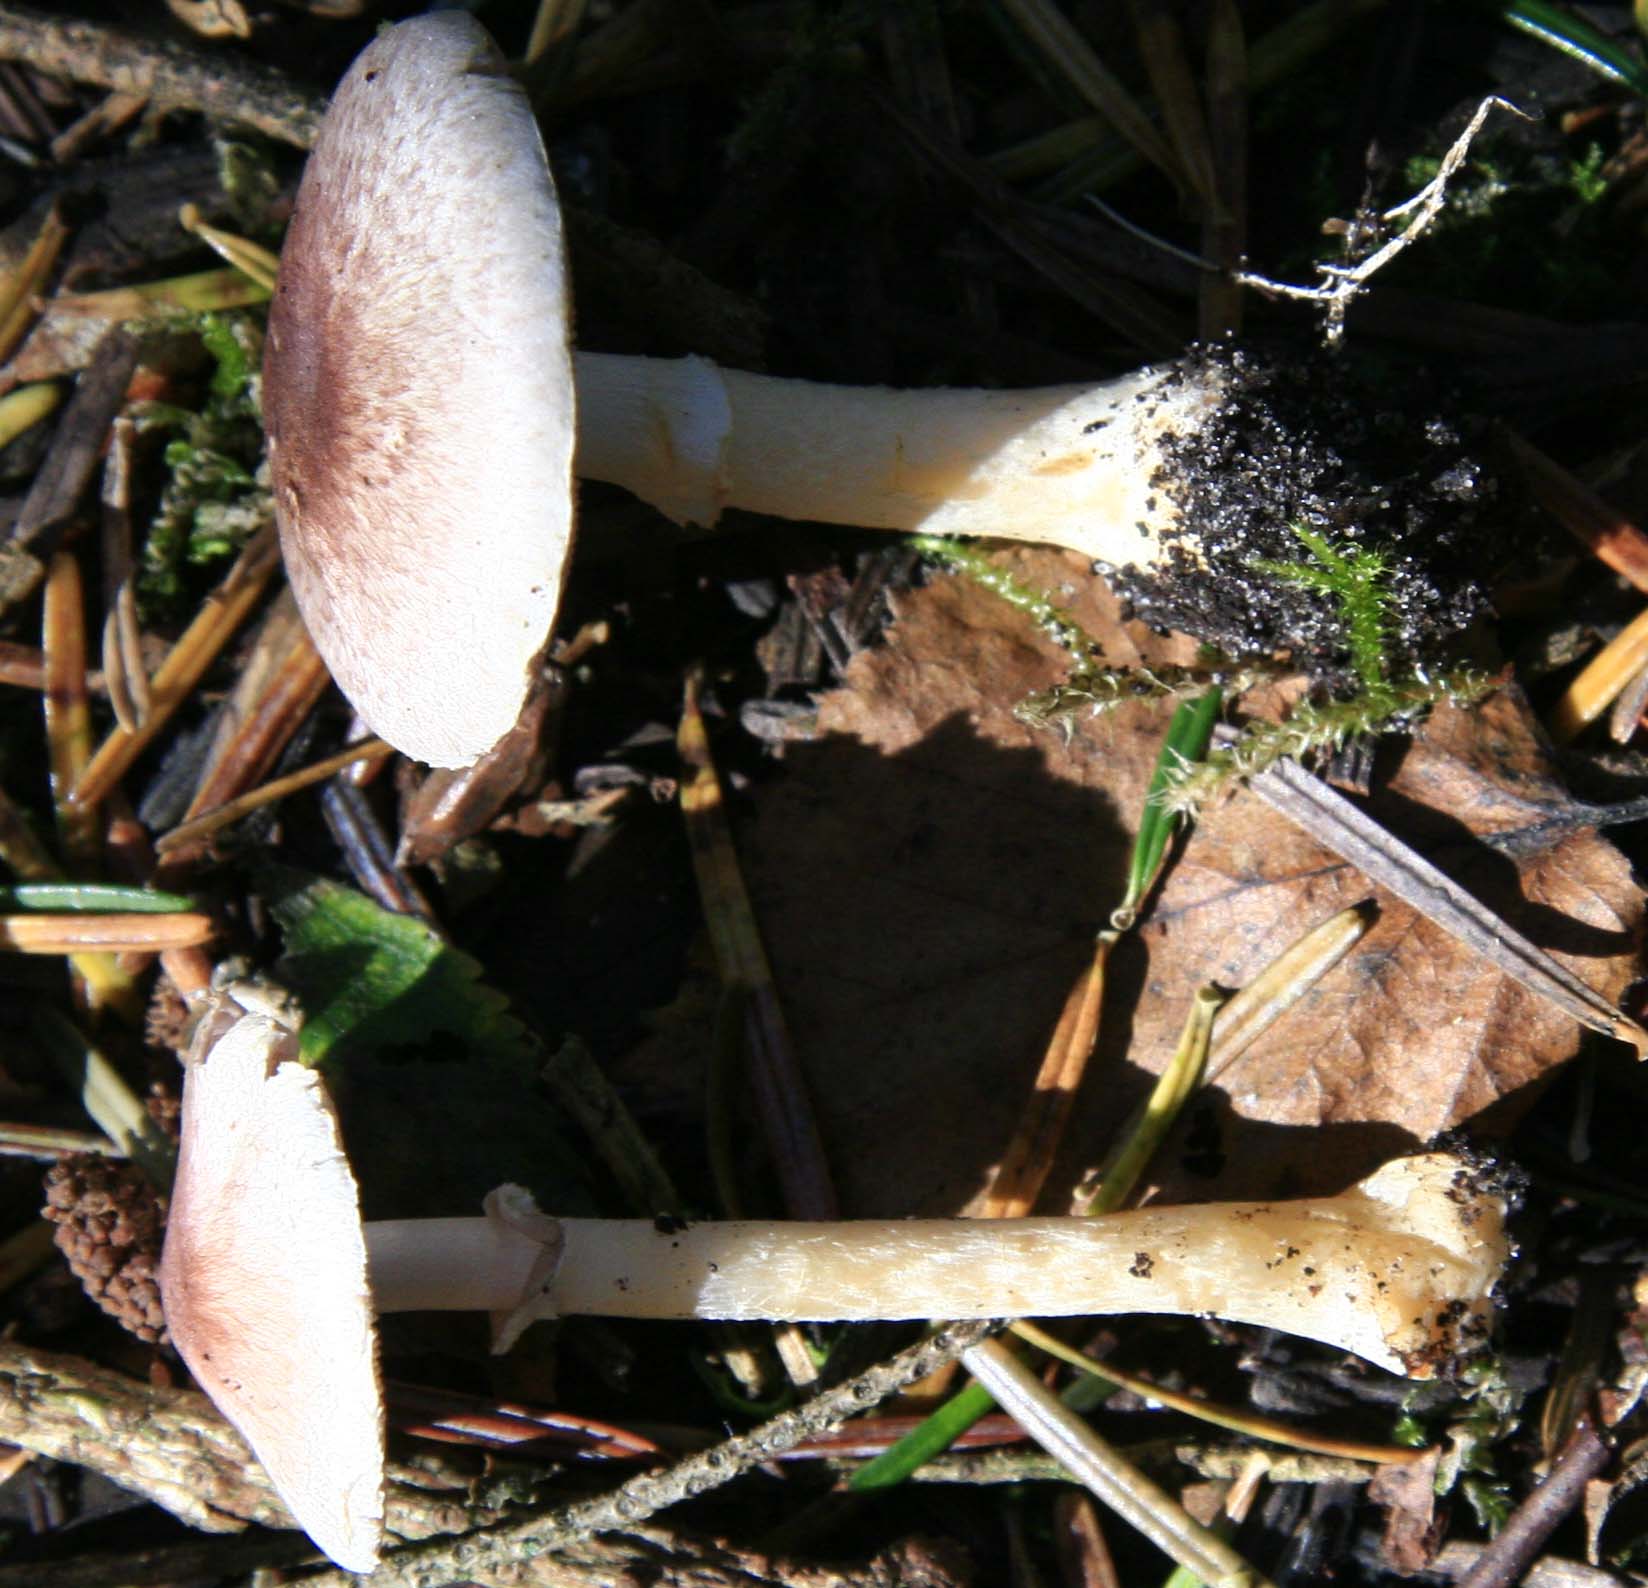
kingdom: Fungi
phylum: Basidiomycota
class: Agaricomycetes
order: Agaricales
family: Agaricaceae
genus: Agaricus
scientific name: Agaricus brunneolus
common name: purpur-champignon
